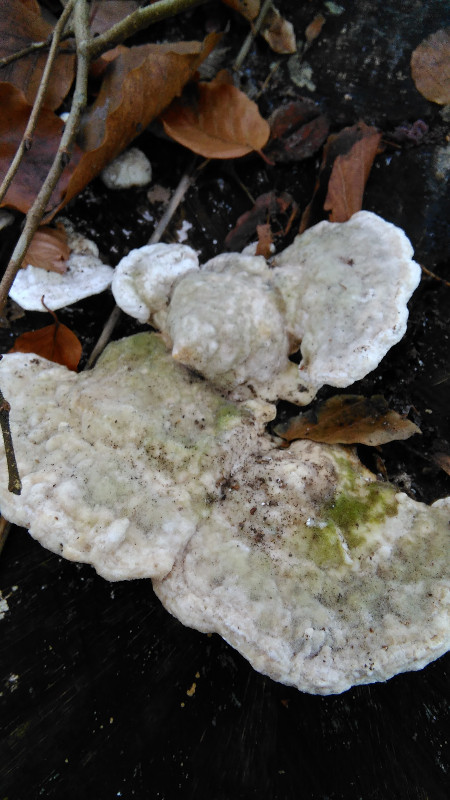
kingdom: Fungi
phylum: Basidiomycota
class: Agaricomycetes
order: Polyporales
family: Polyporaceae
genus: Trametes
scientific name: Trametes hirsuta
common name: håret læderporesvamp
